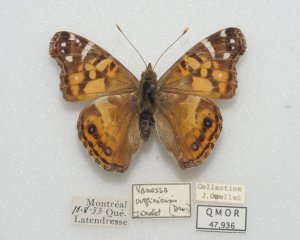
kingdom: Animalia
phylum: Arthropoda
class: Insecta
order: Lepidoptera
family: Nymphalidae
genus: Vanessa
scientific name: Vanessa virginiensis
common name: American Lady
